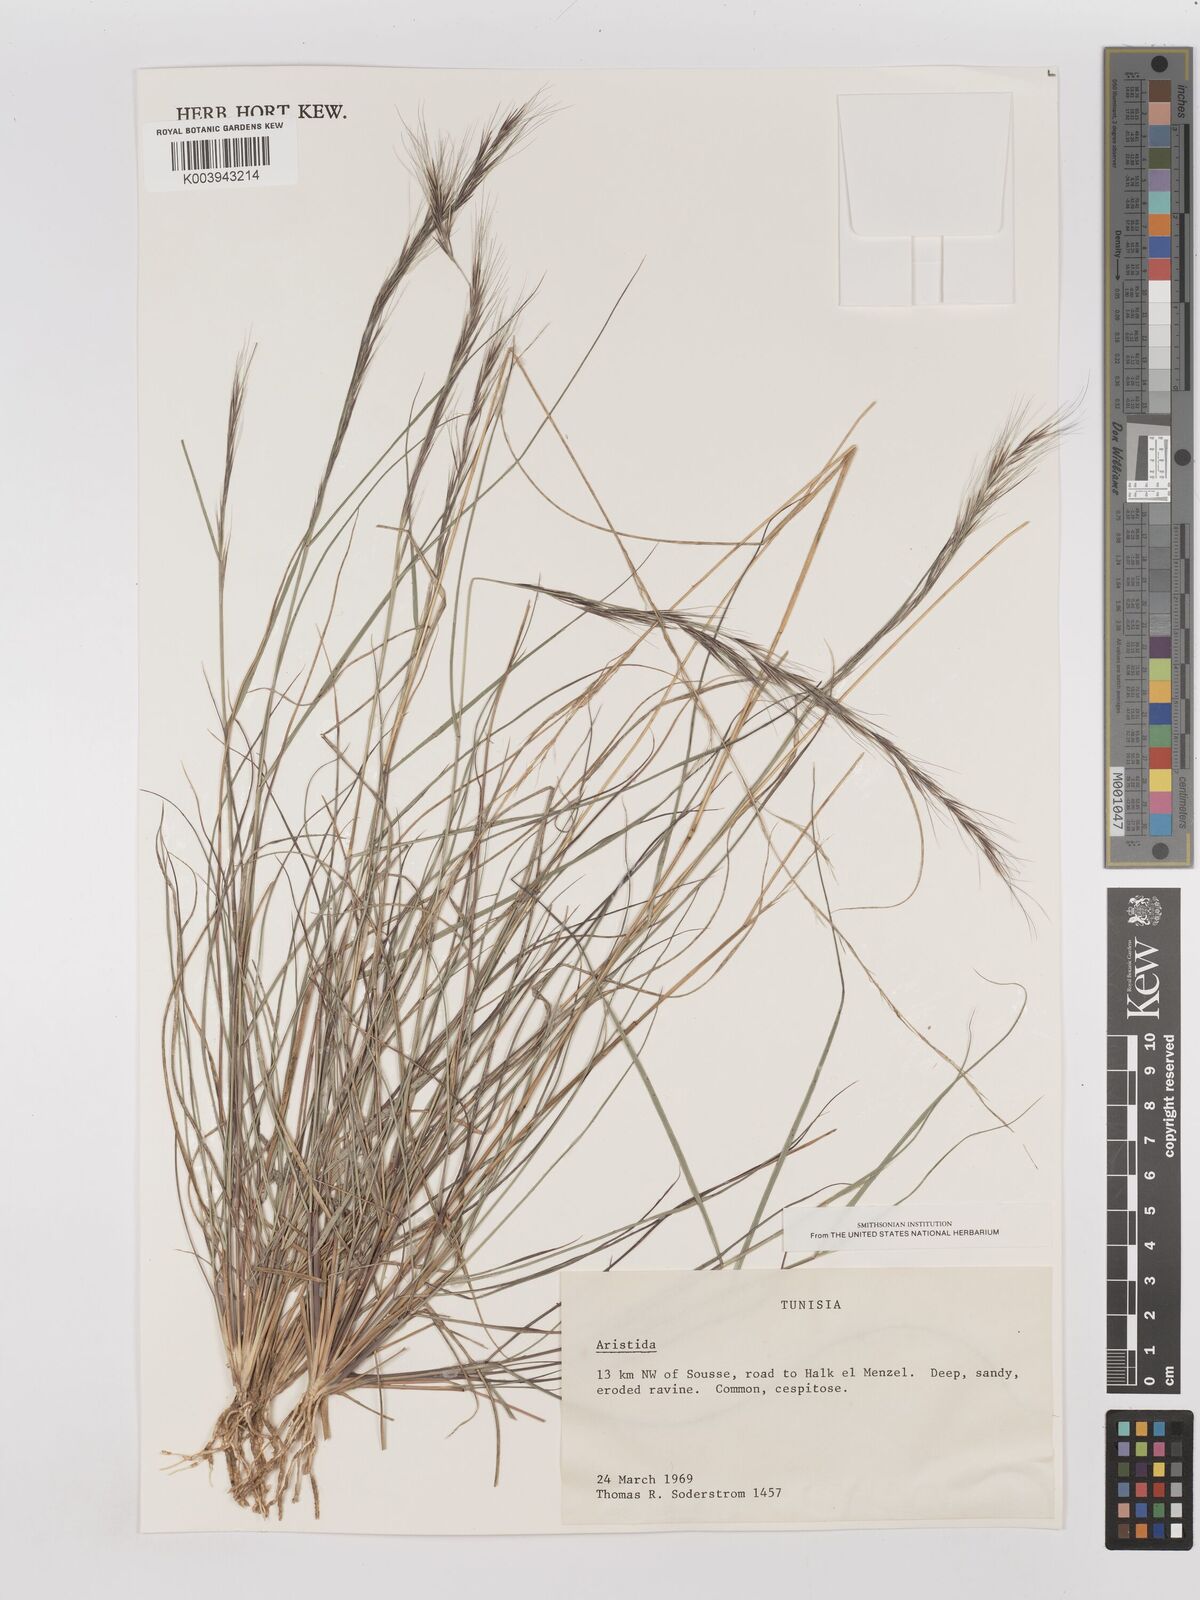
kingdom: Plantae
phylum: Tracheophyta
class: Liliopsida
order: Poales
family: Poaceae
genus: Aristida
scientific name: Aristida adscensionis
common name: Sixweeks threeawn
